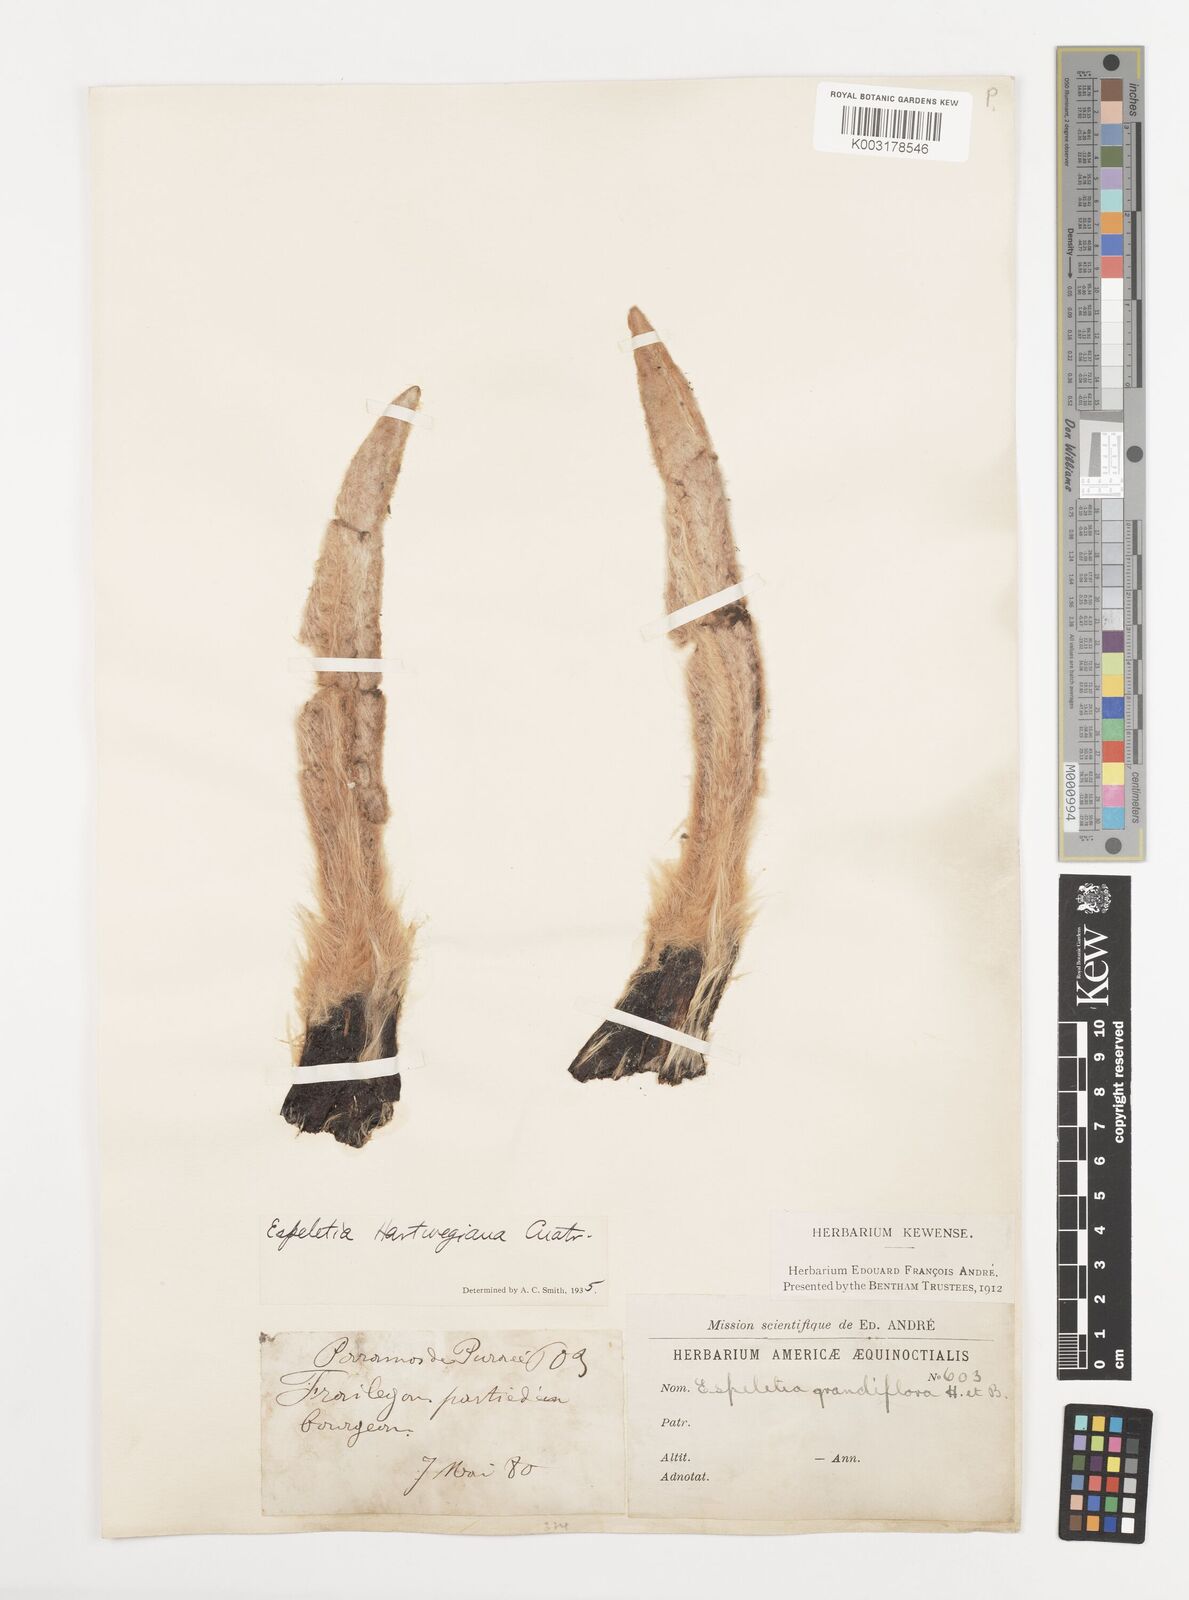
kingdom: Plantae
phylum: Tracheophyta
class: Magnoliopsida
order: Asterales
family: Asteraceae
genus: Espeletia
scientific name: Espeletia hartwegiana
